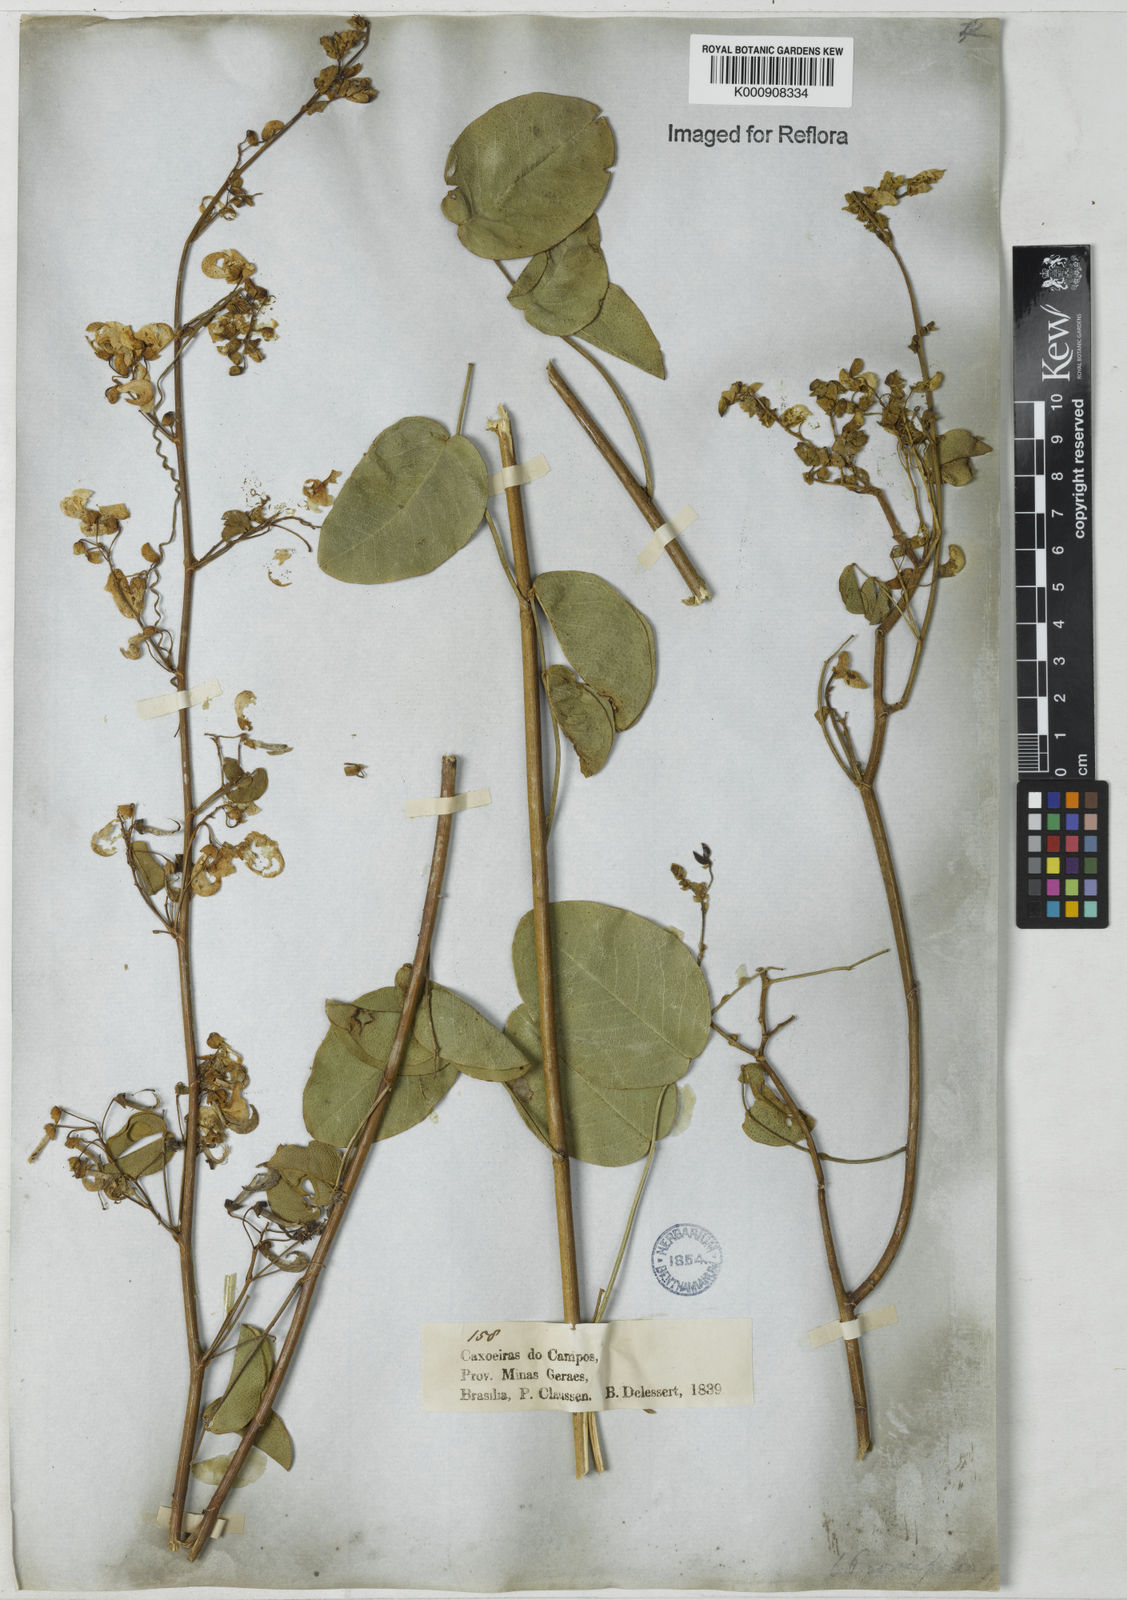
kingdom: Plantae
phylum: Tracheophyta
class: Magnoliopsida
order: Fabales
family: Fabaceae
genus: Poiretia
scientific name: Poiretia coriifolia
